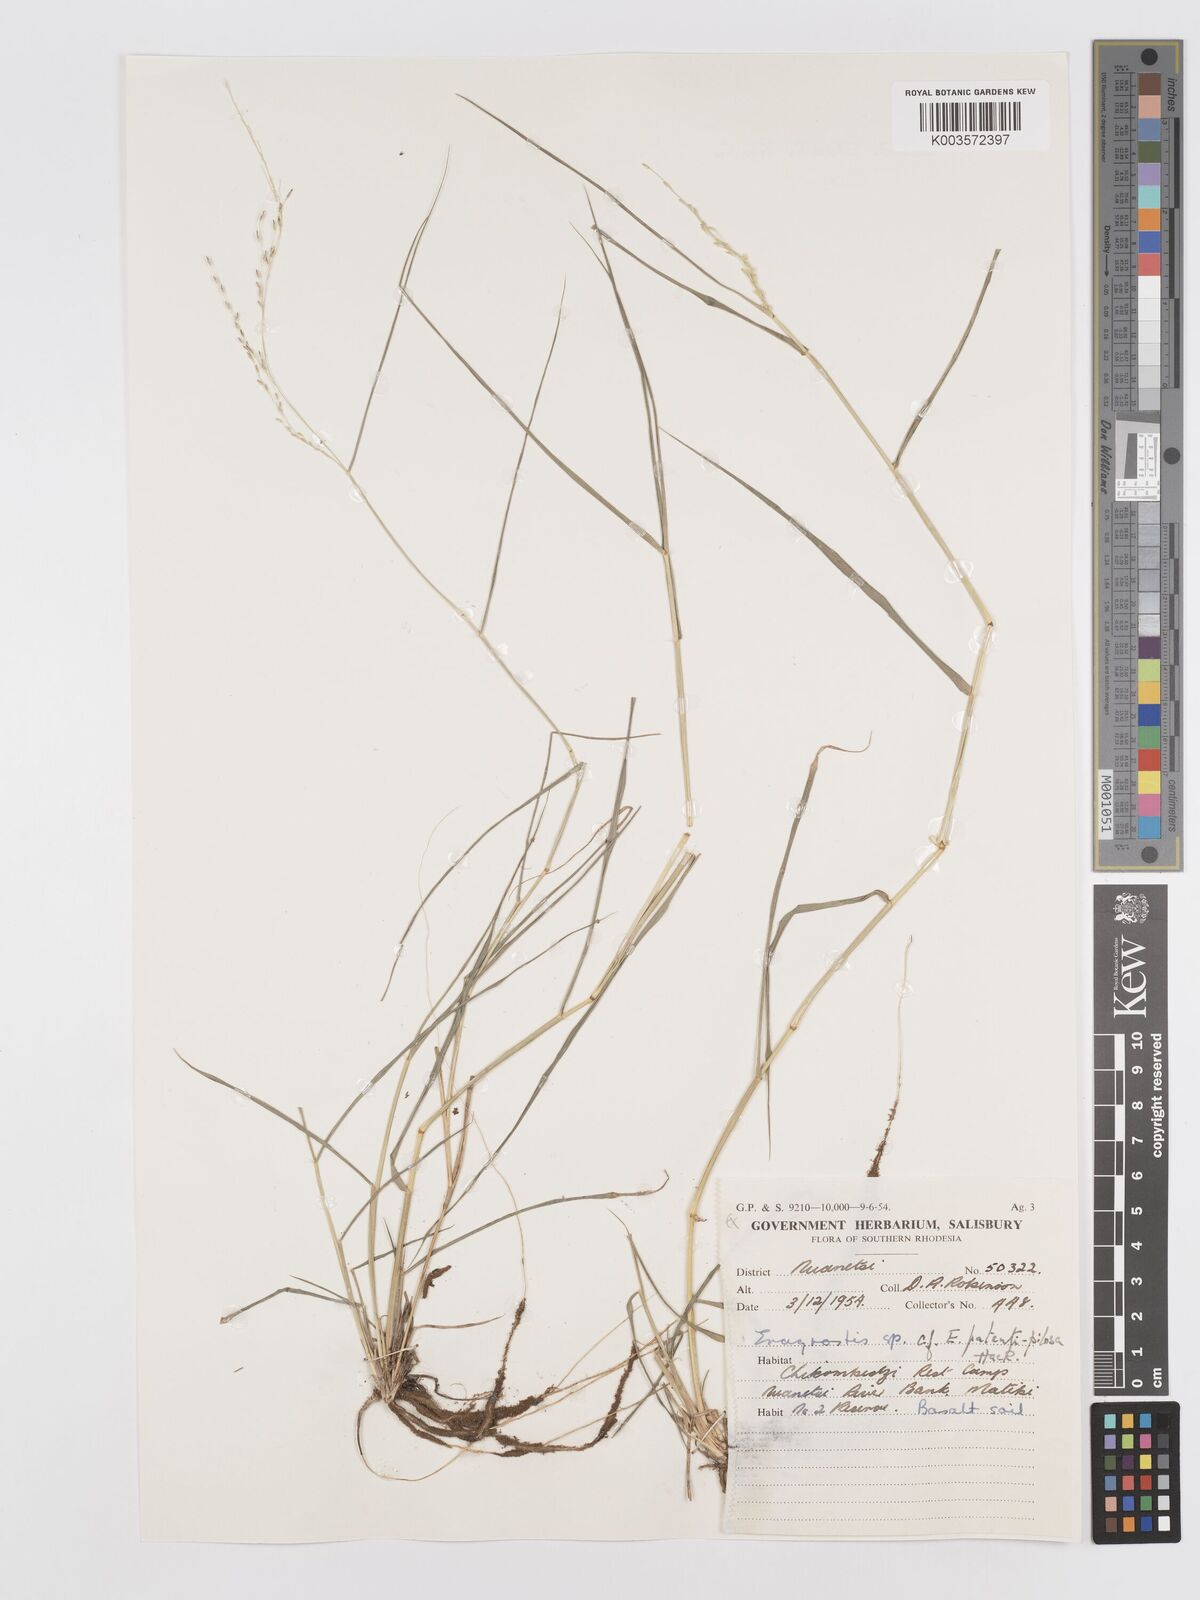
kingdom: Plantae
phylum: Tracheophyta
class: Liliopsida
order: Poales
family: Poaceae
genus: Eragrostis
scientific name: Eragrostis
